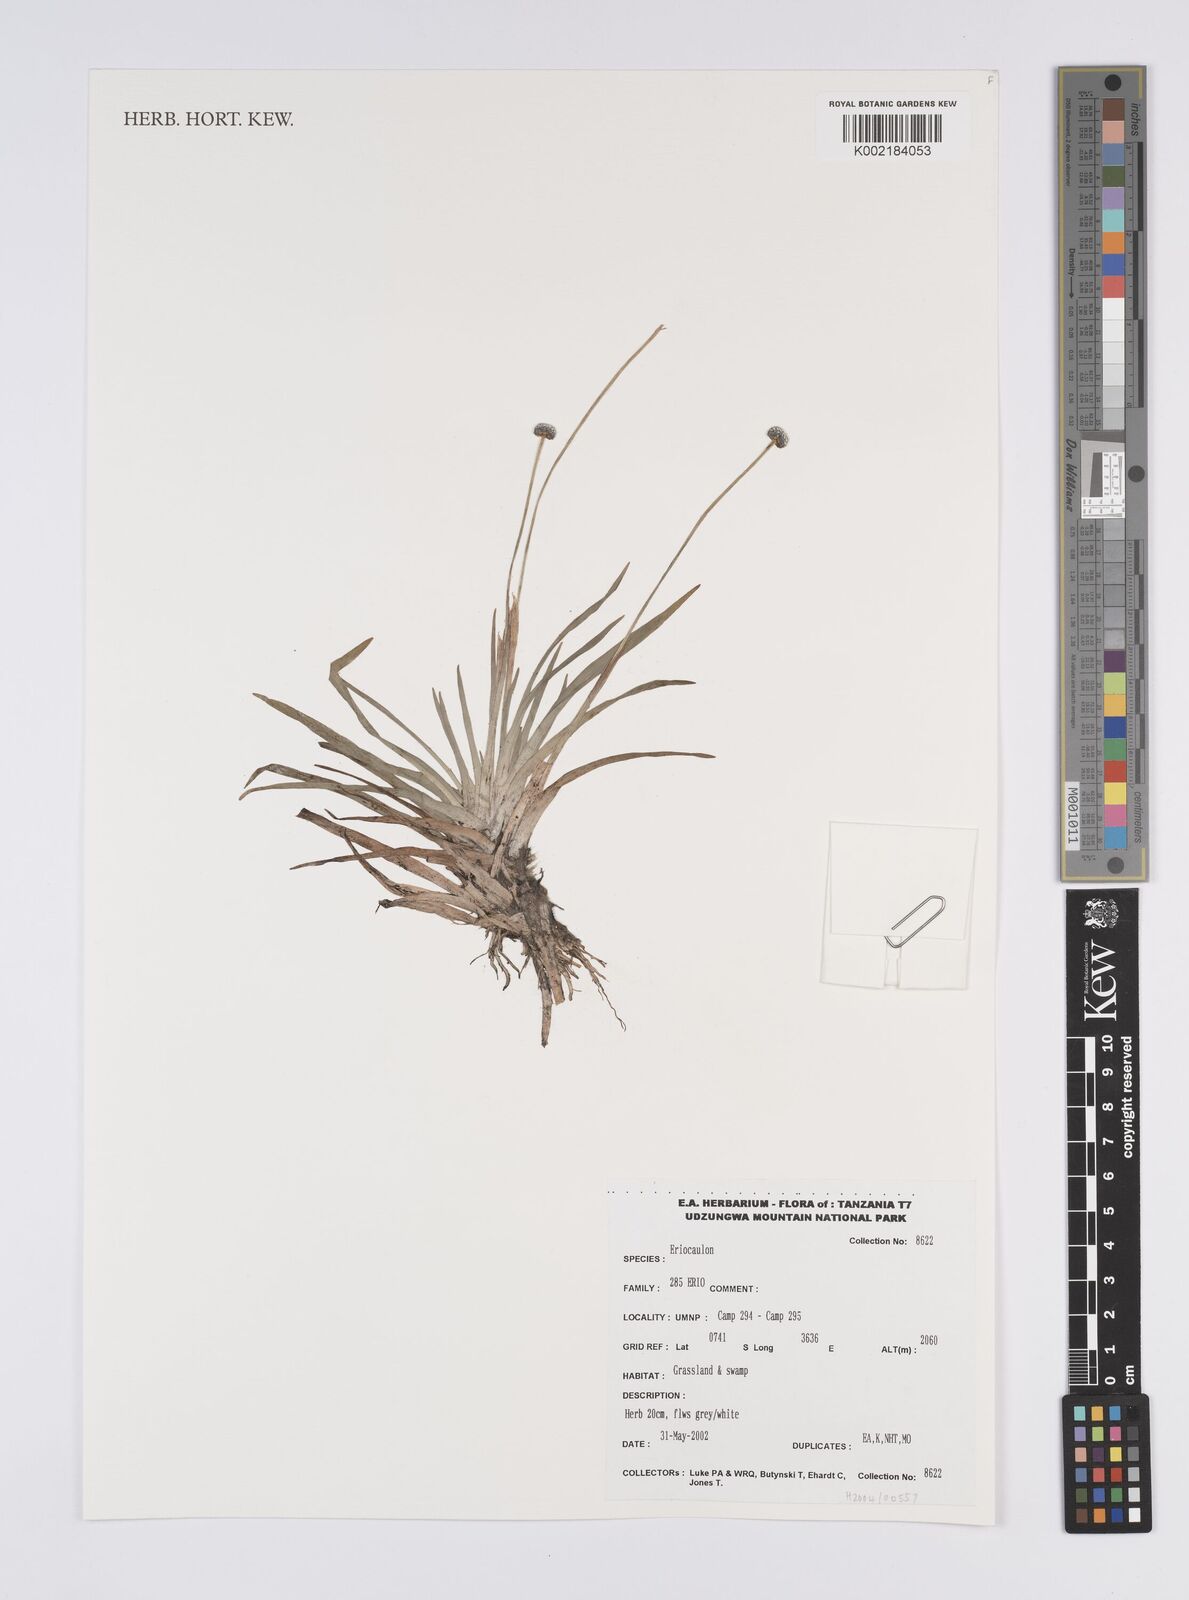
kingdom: Plantae
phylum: Tracheophyta
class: Liliopsida
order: Poales
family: Eriocaulaceae
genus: Eriocaulon
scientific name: Eriocaulon
